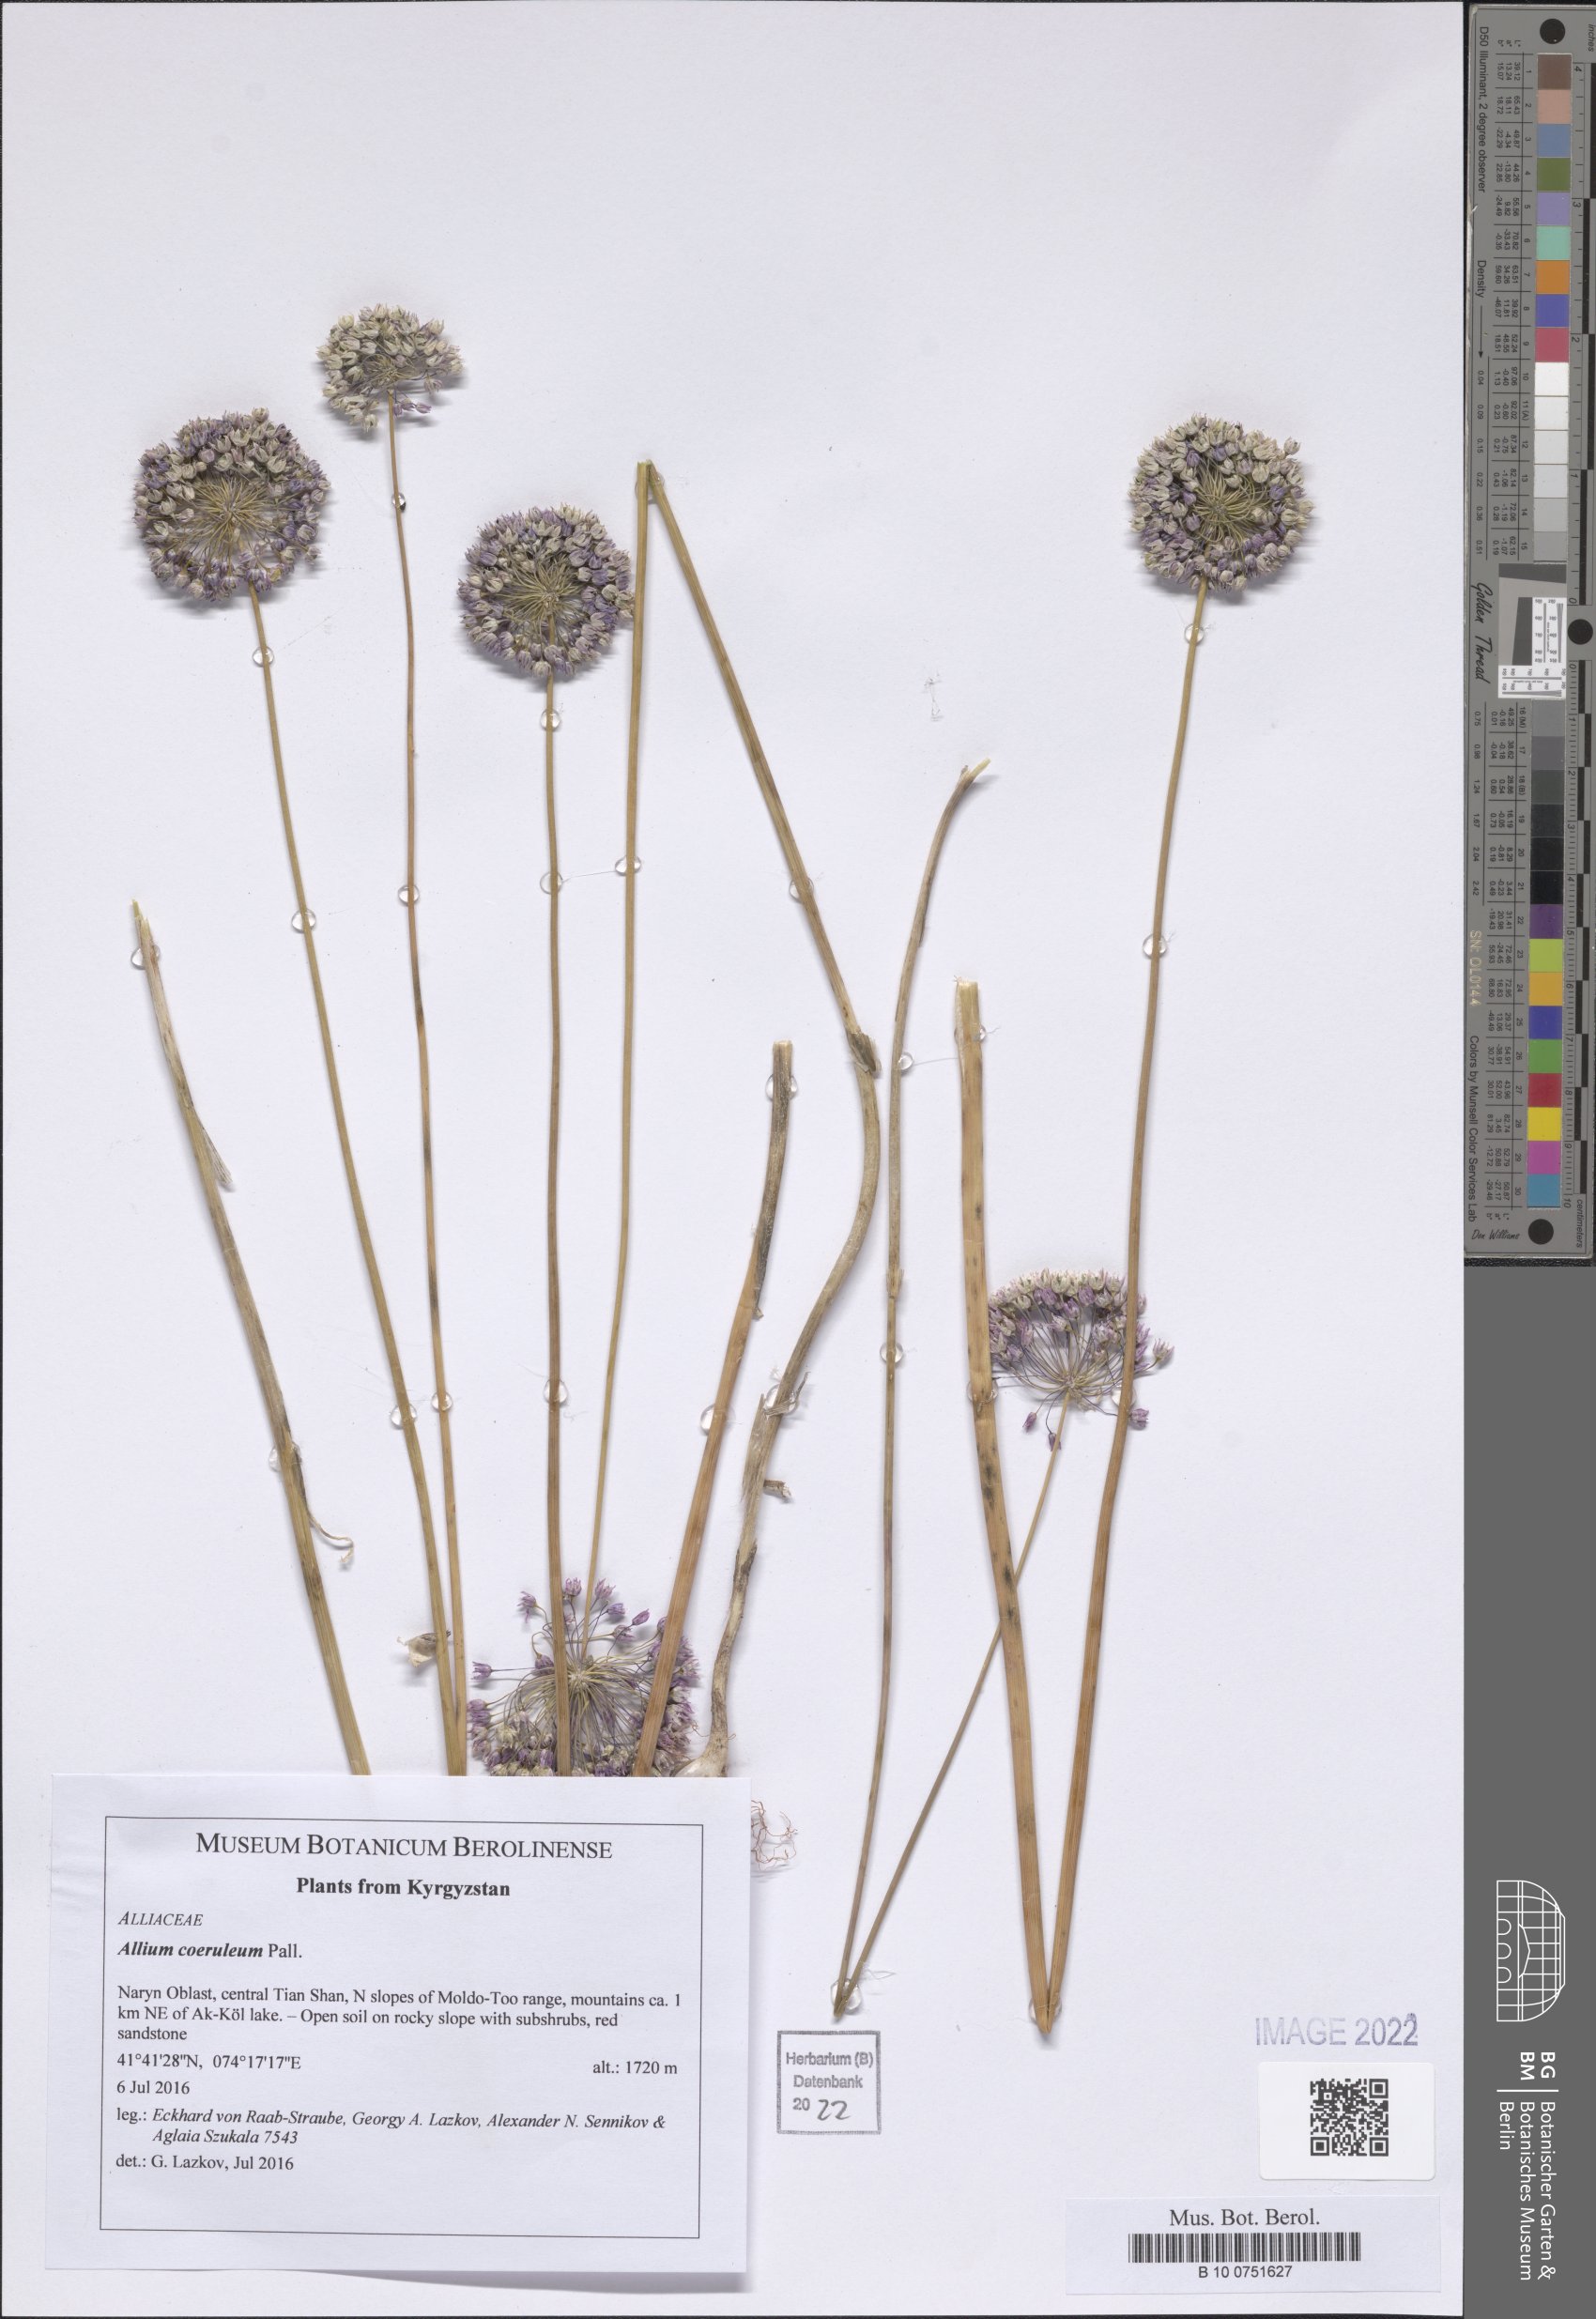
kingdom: Plantae
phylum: Tracheophyta
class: Liliopsida
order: Asparagales
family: Amaryllidaceae
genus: Allium
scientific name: Allium caeruleum
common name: Blue-of-the-heavens
